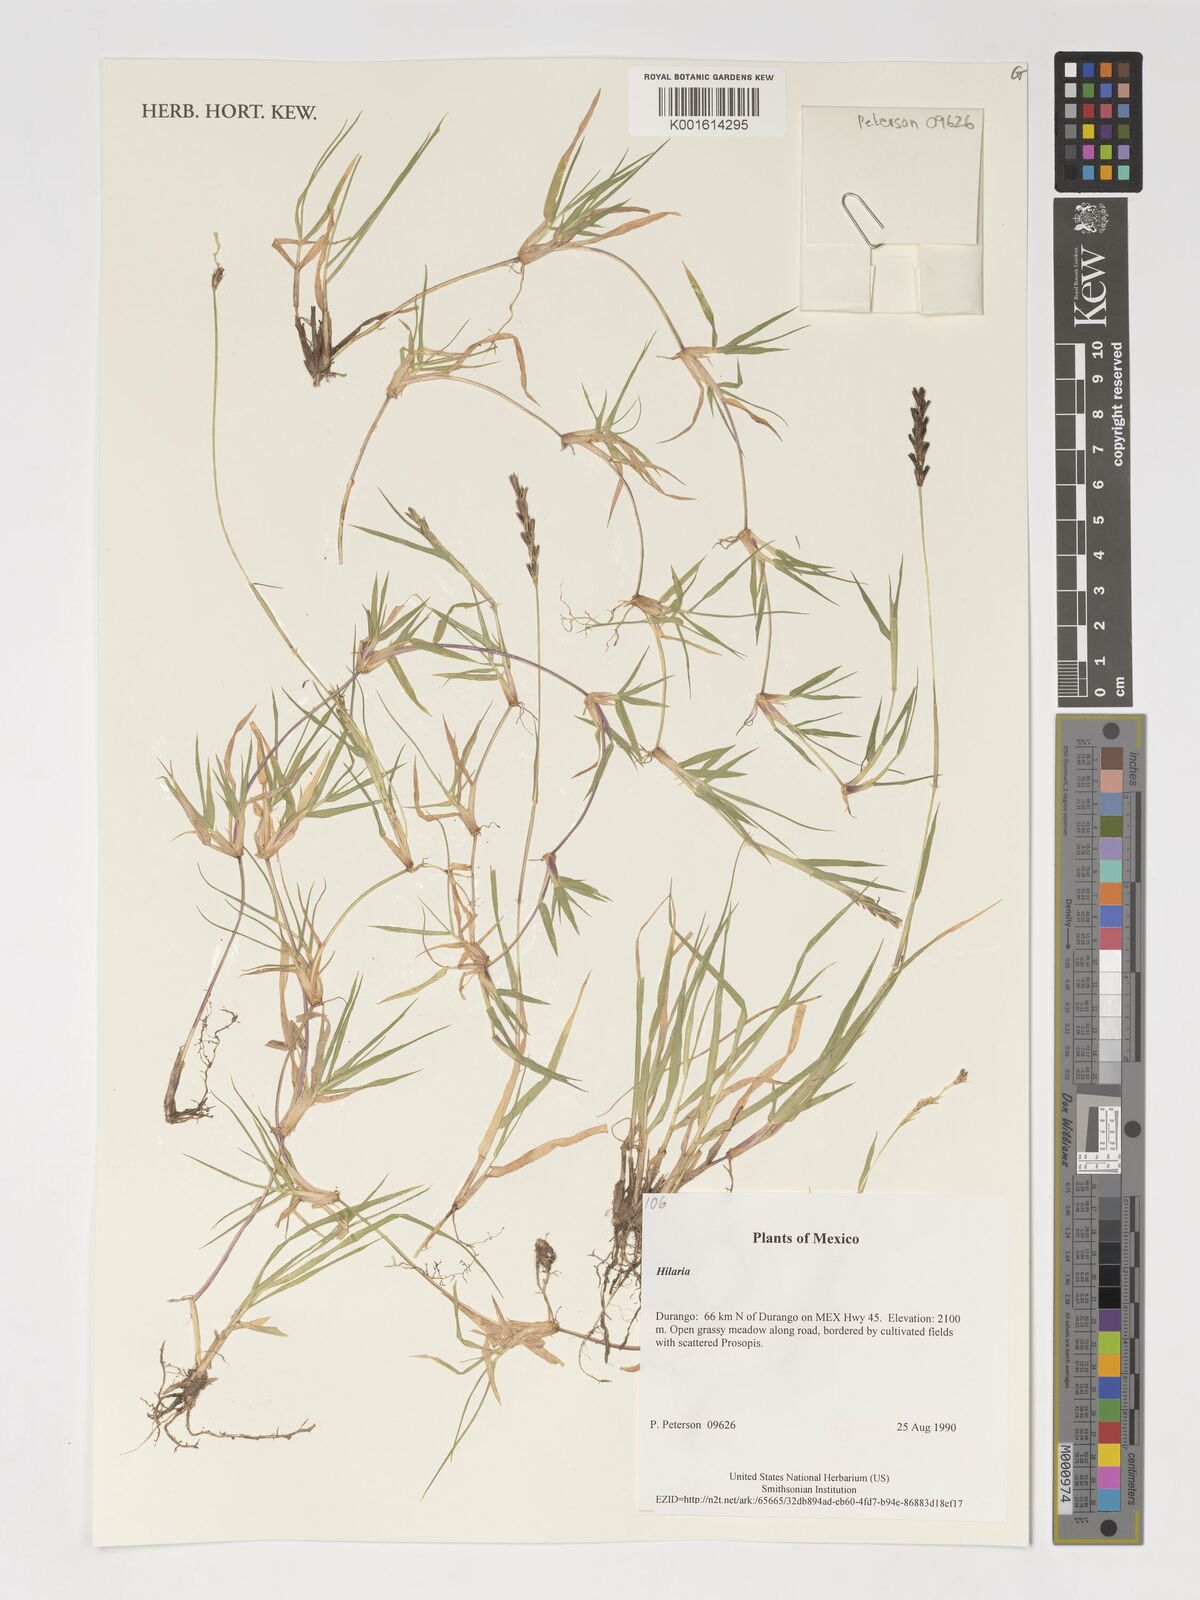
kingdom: Plantae
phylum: Tracheophyta
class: Liliopsida
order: Poales
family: Poaceae
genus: Hilaria
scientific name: Hilaria
